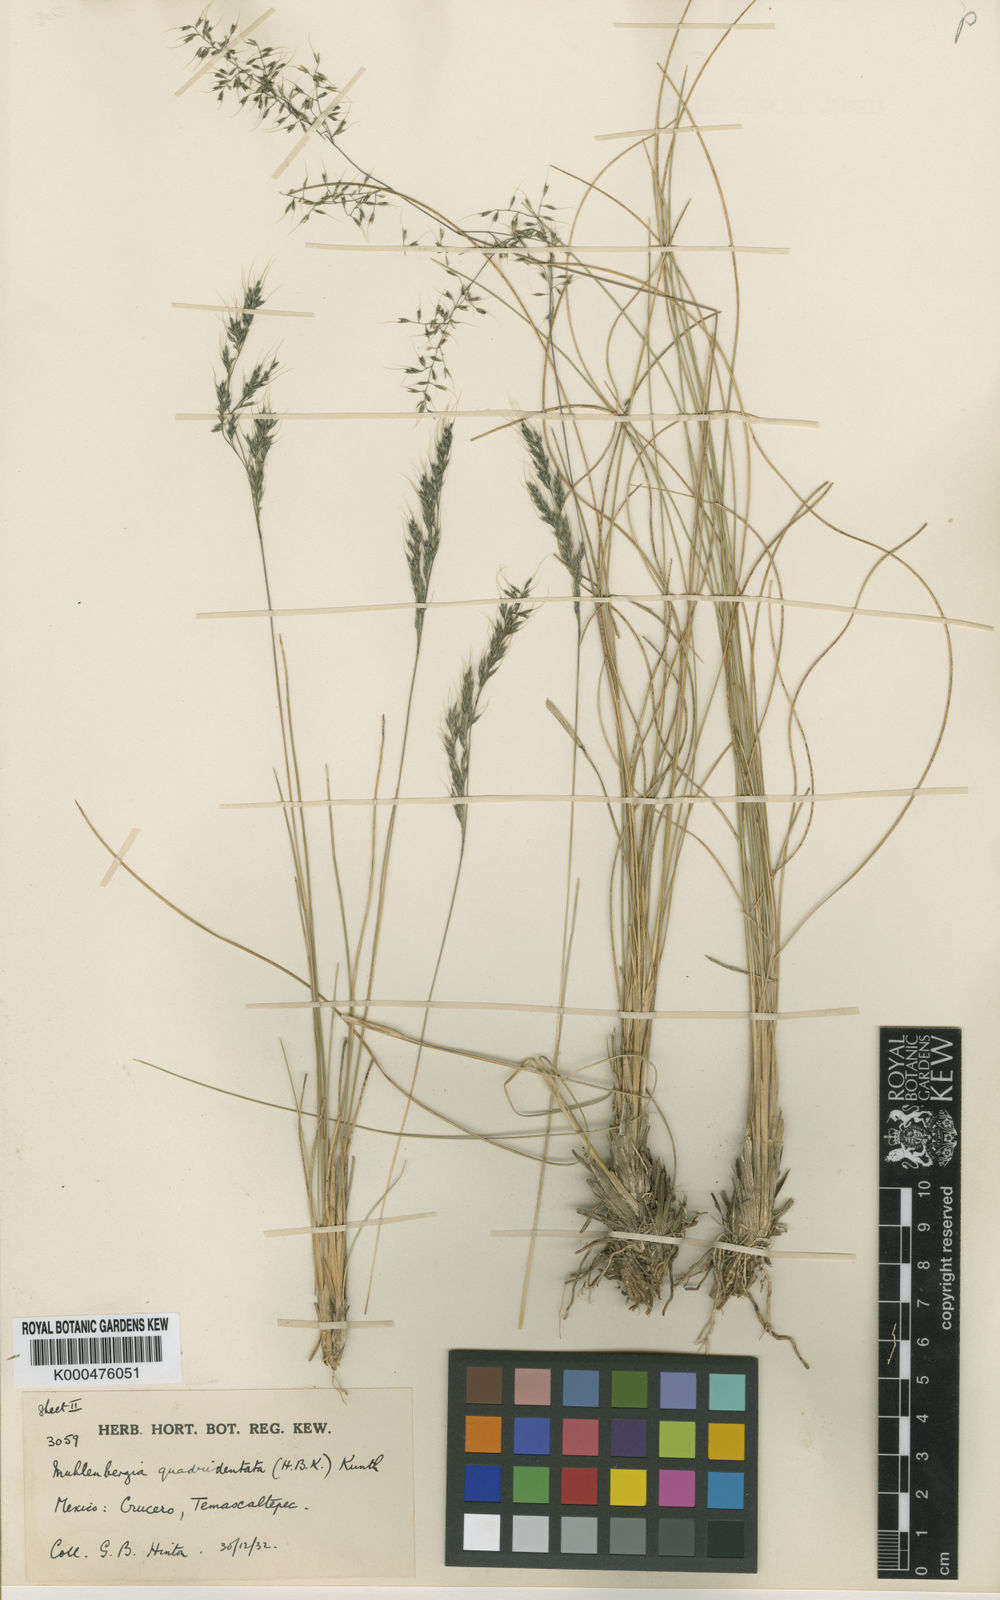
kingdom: Plantae
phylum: Tracheophyta
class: Liliopsida
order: Poales
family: Poaceae
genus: Muhlenbergia
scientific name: Muhlenbergia hintonii
